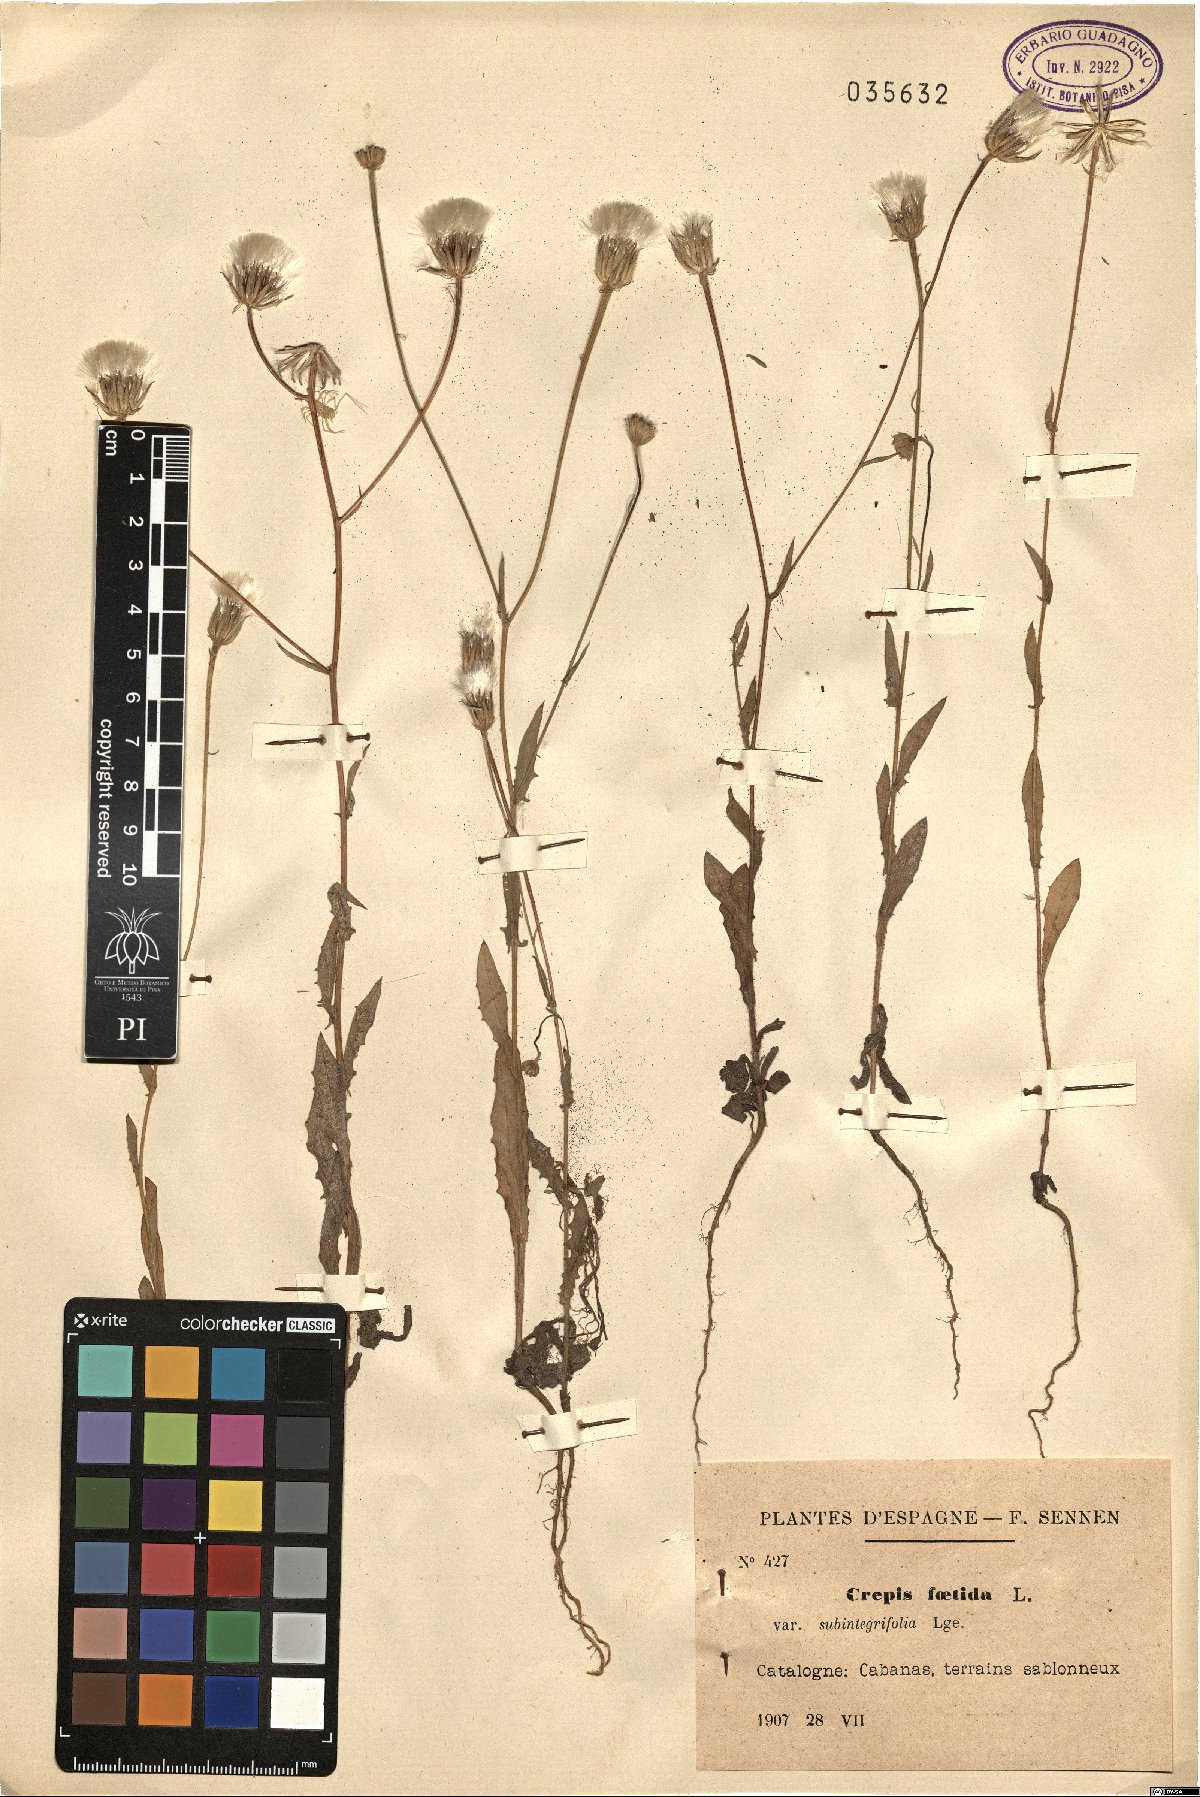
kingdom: Plantae
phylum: Tracheophyta
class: Magnoliopsida
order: Asterales
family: Asteraceae
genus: Crepis
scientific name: Crepis foetida
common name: Stinking hawk's-beard
